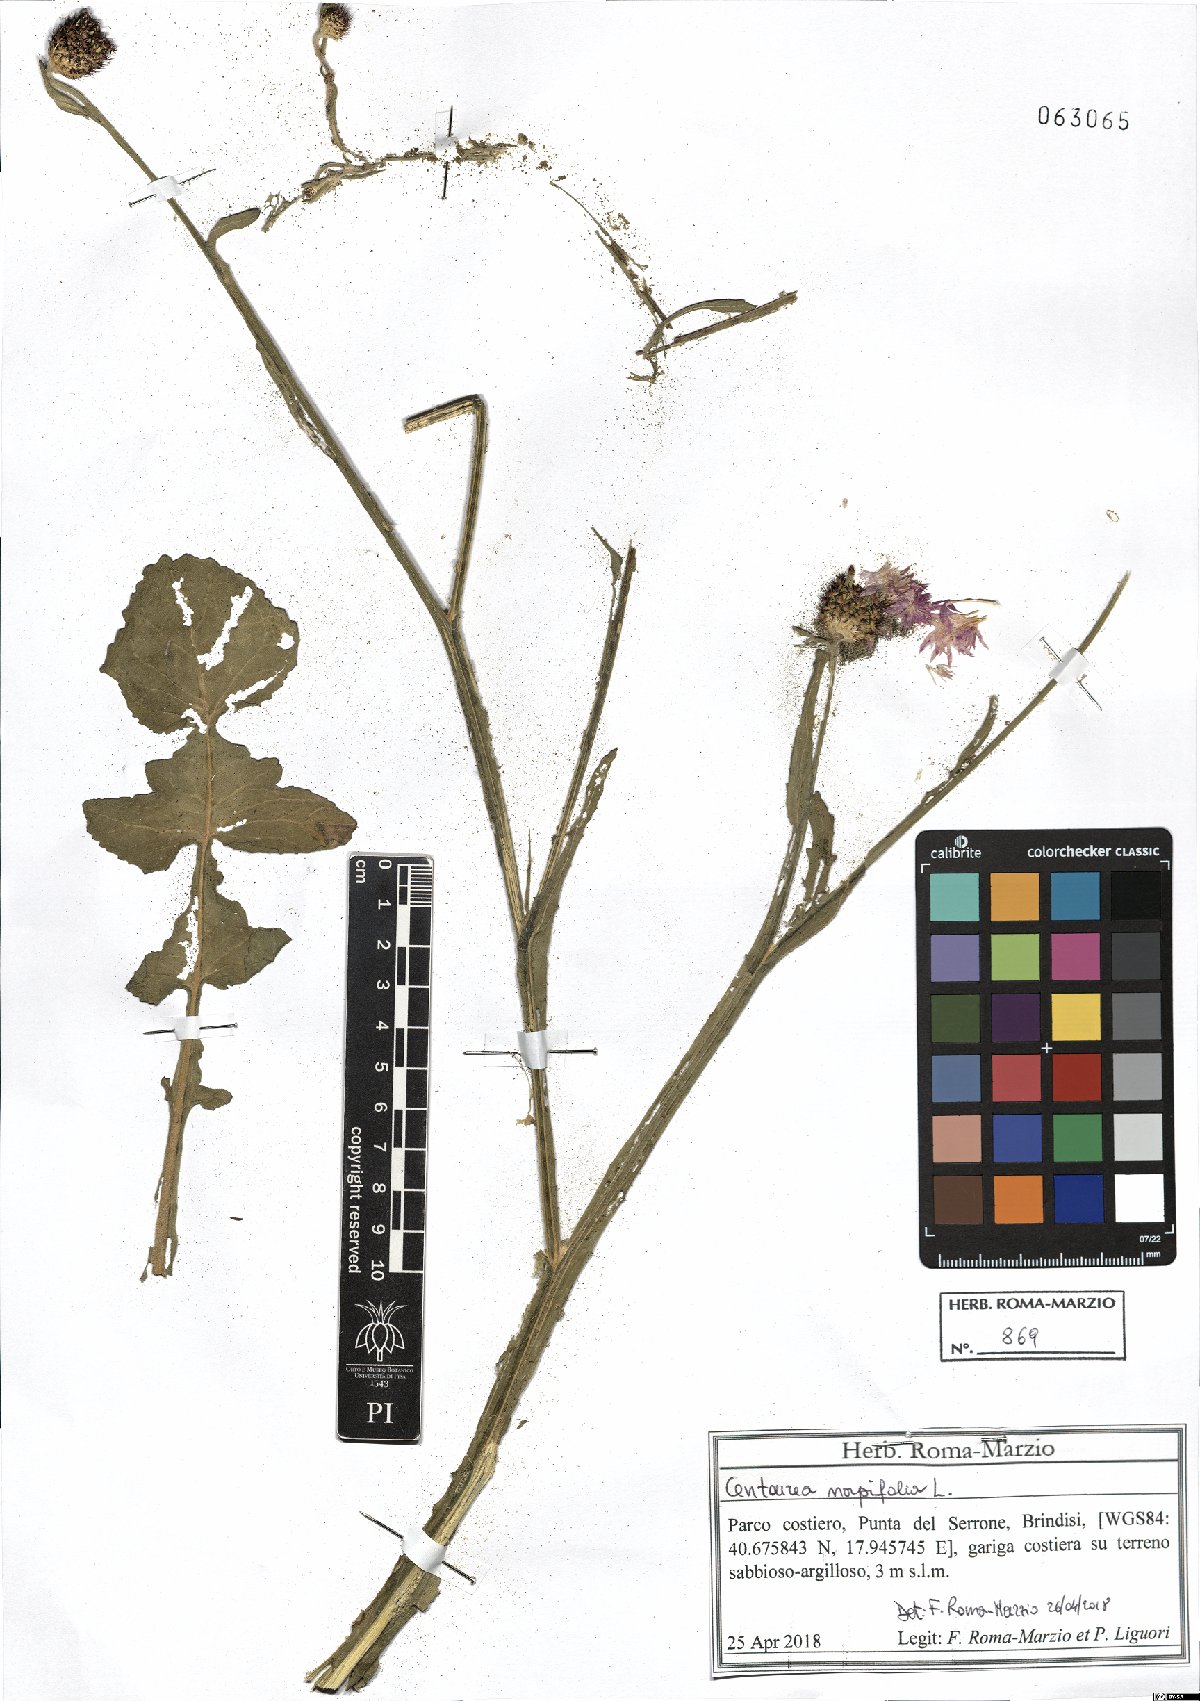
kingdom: Plantae
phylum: Tracheophyta
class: Magnoliopsida
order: Asterales
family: Asteraceae
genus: Centaurea
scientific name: Centaurea napifolia
